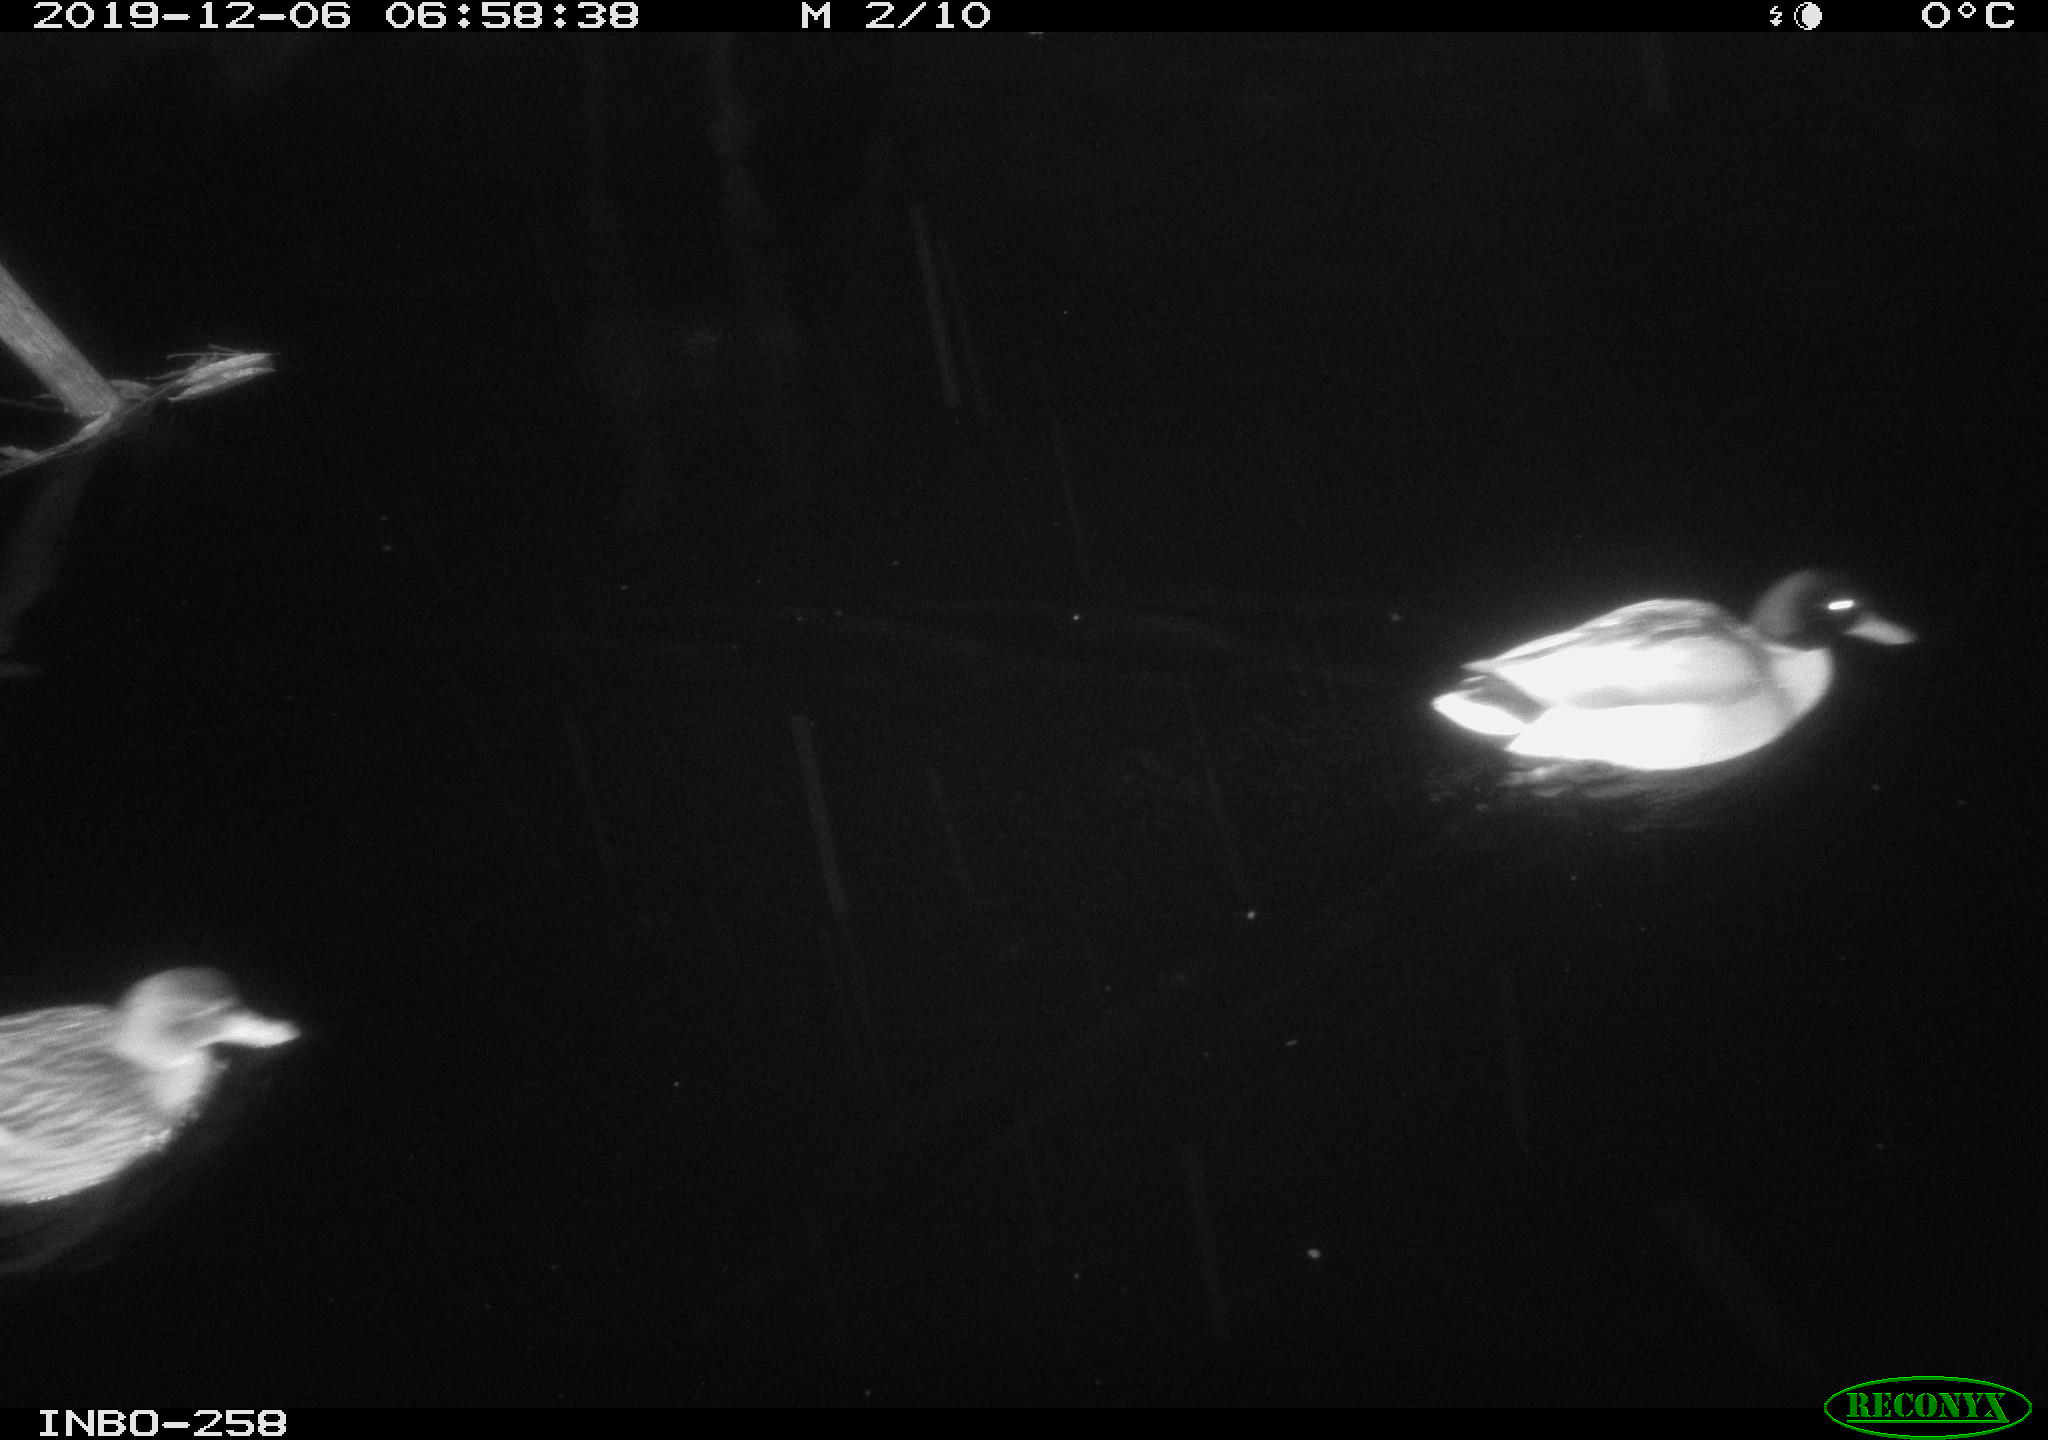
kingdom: Animalia
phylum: Chordata
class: Aves
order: Anseriformes
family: Anatidae
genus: Anas
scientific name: Anas platyrhynchos
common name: Mallard
